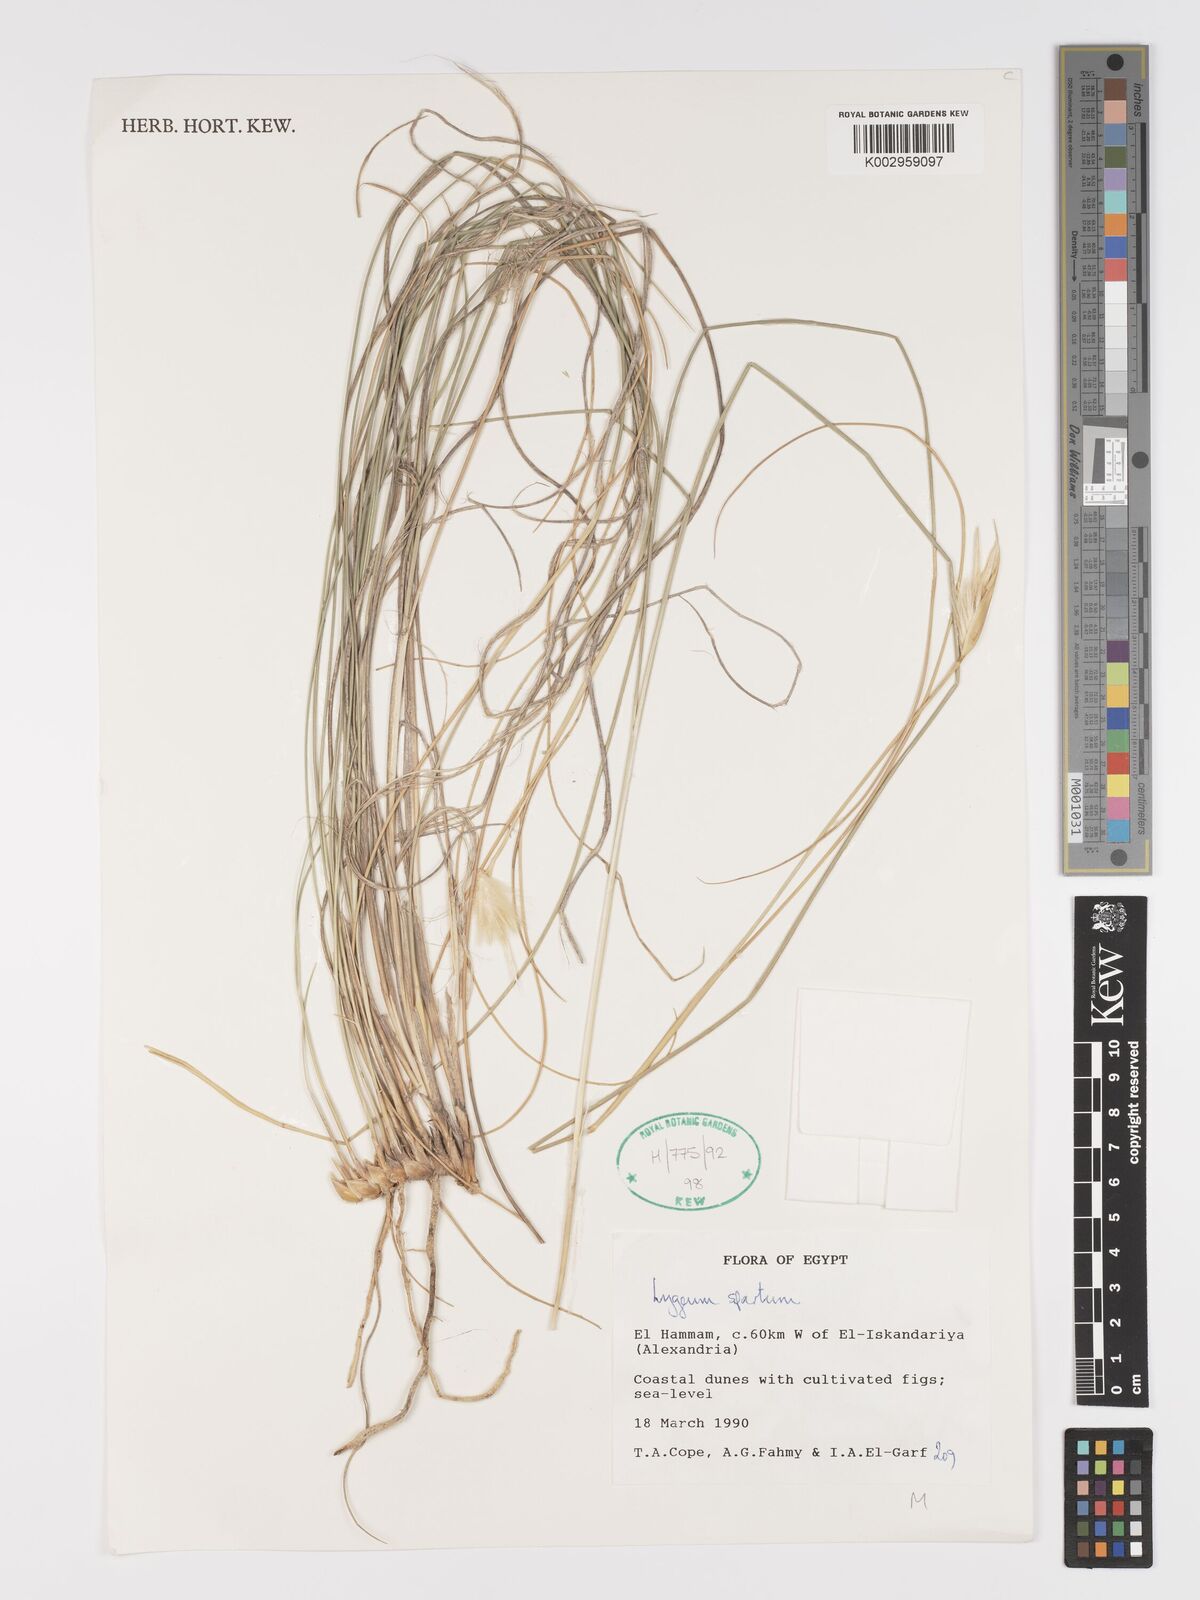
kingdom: Plantae
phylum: Tracheophyta
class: Liliopsida
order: Poales
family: Poaceae
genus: Lygeum
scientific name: Lygeum spartum
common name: Albardine
